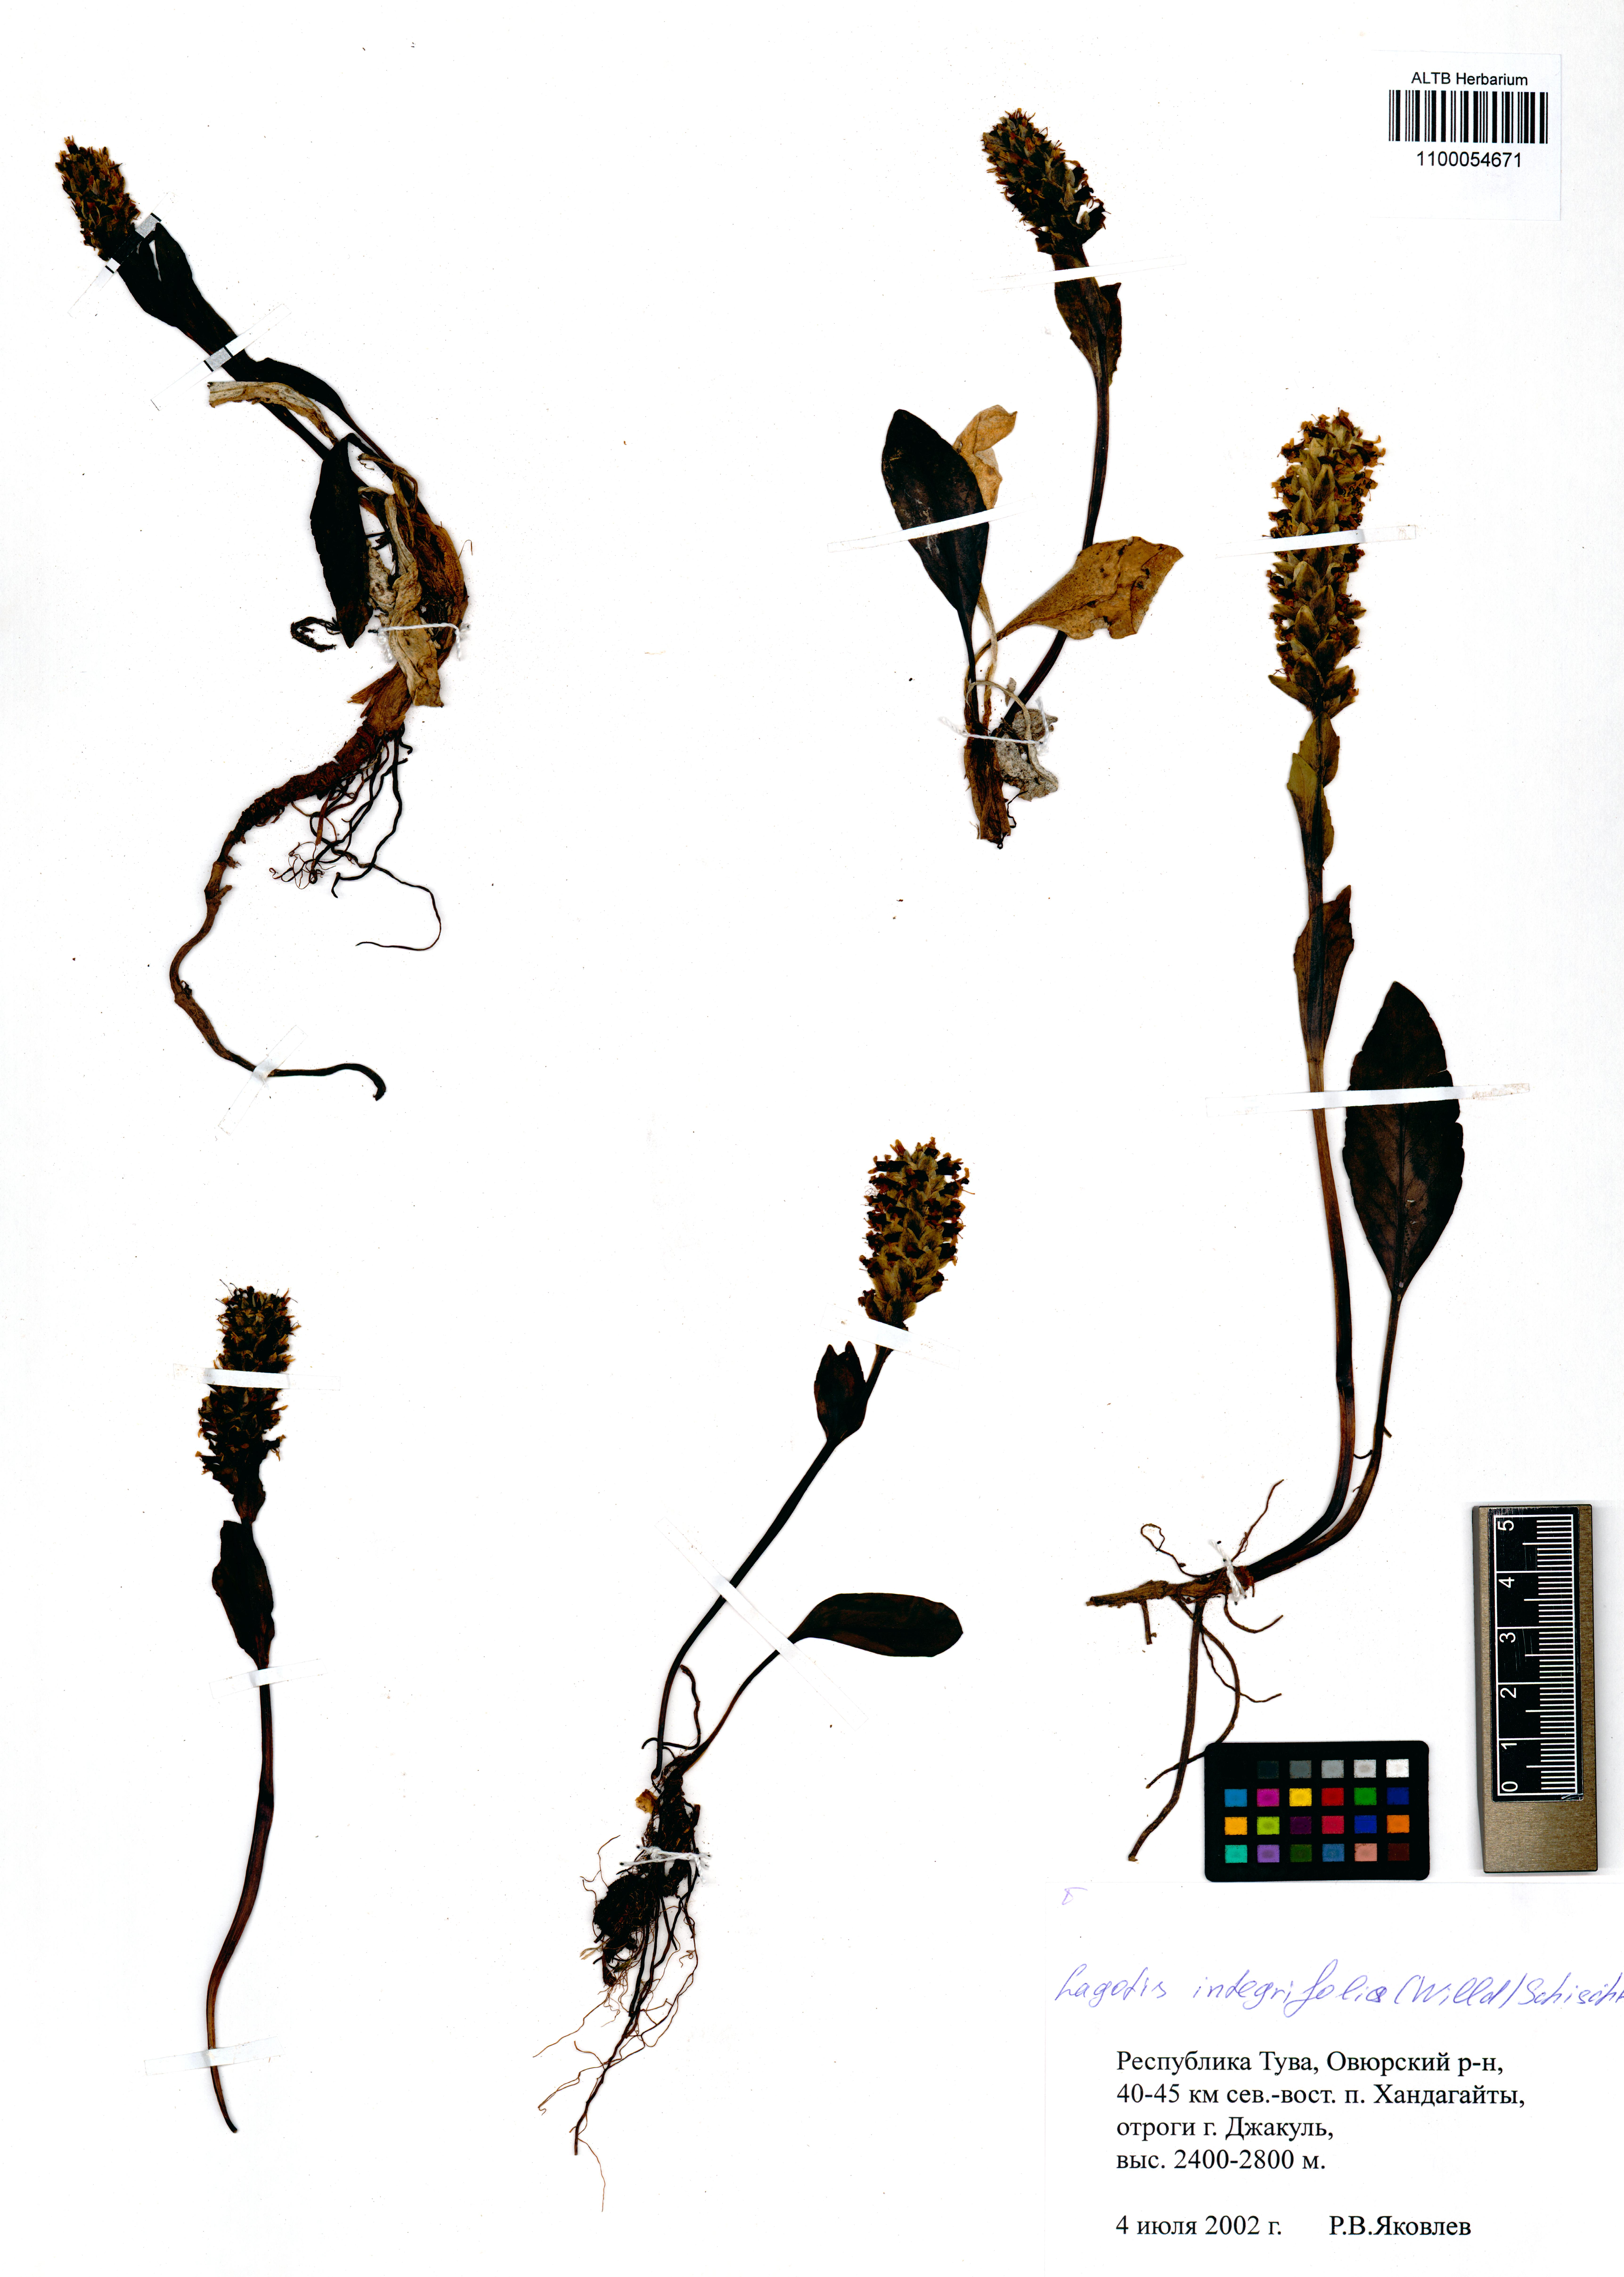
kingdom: Plantae
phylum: Tracheophyta
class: Magnoliopsida
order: Lamiales
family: Plantaginaceae
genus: Lagotis
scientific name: Lagotis integrifolia
